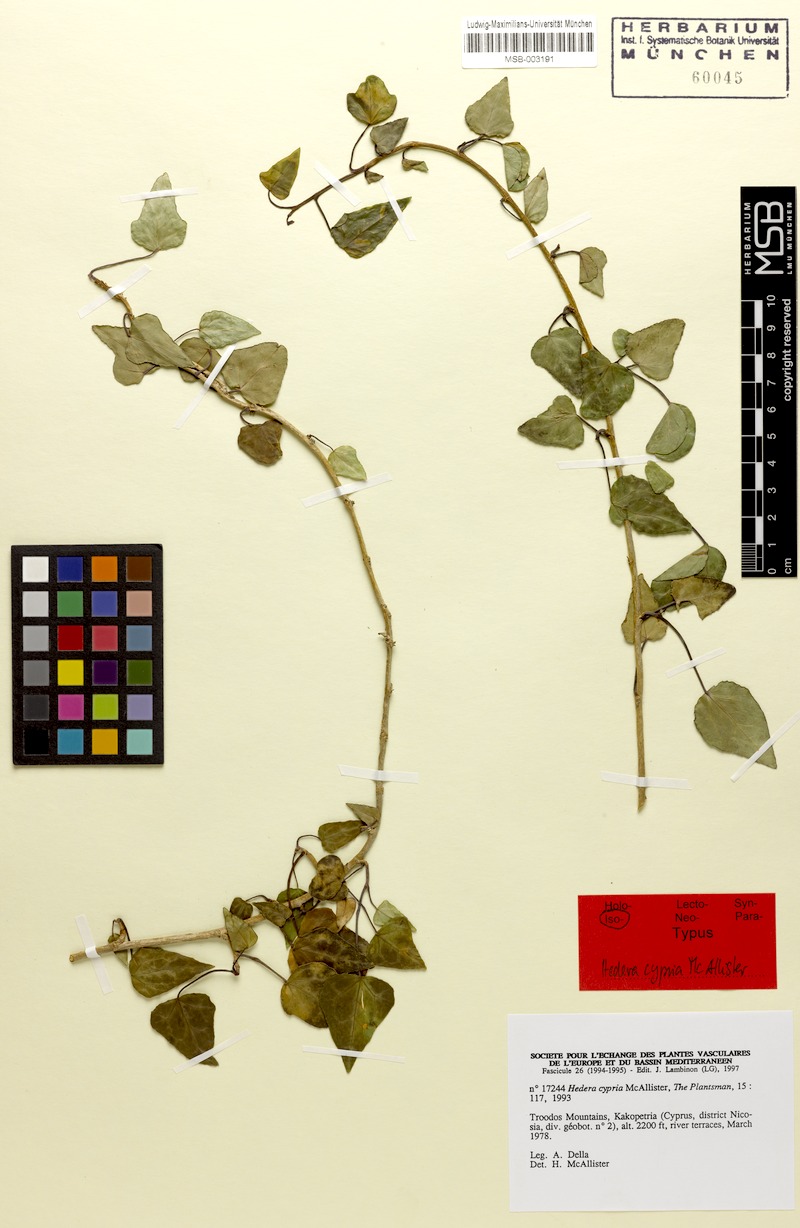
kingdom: Plantae
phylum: Tracheophyta
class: Magnoliopsida
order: Apiales
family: Araliaceae
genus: Hedera
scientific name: Hedera pastuchovii
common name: Persian ivy
